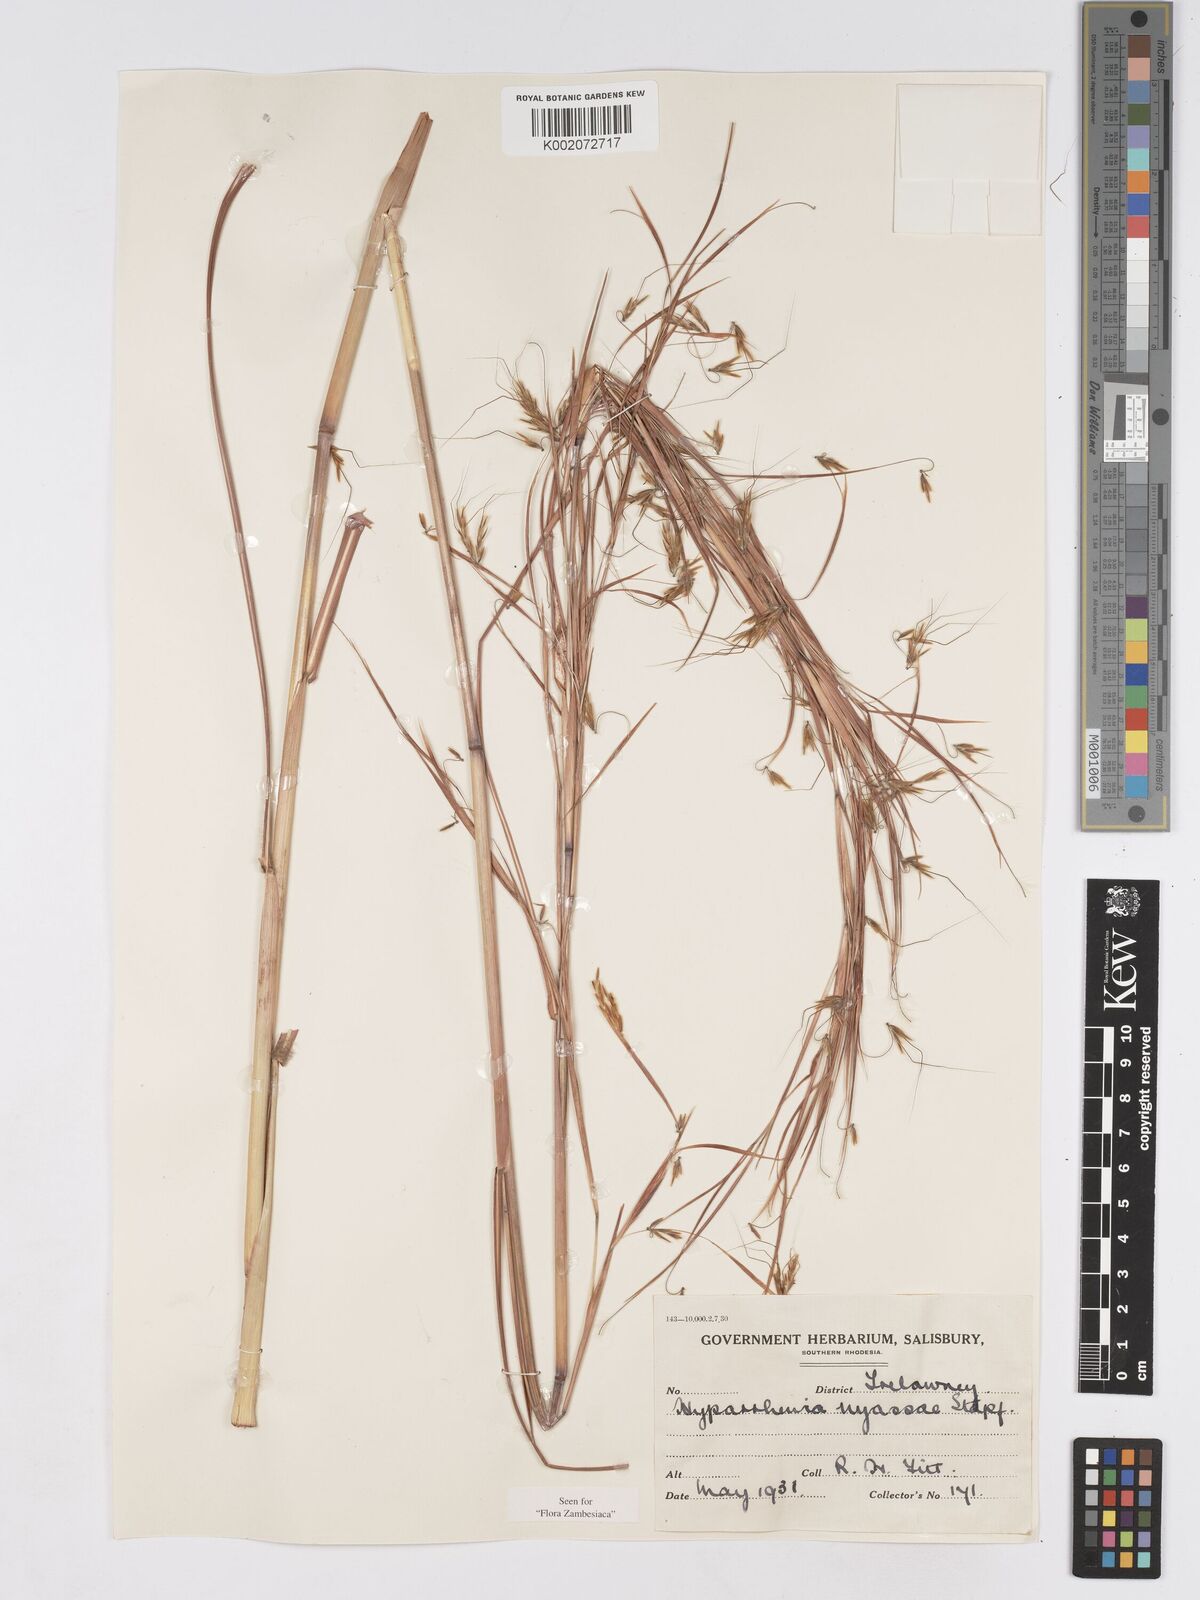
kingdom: Plantae
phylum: Tracheophyta
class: Liliopsida
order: Poales
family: Poaceae
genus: Hyparrhenia
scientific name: Hyparrhenia nyassae
